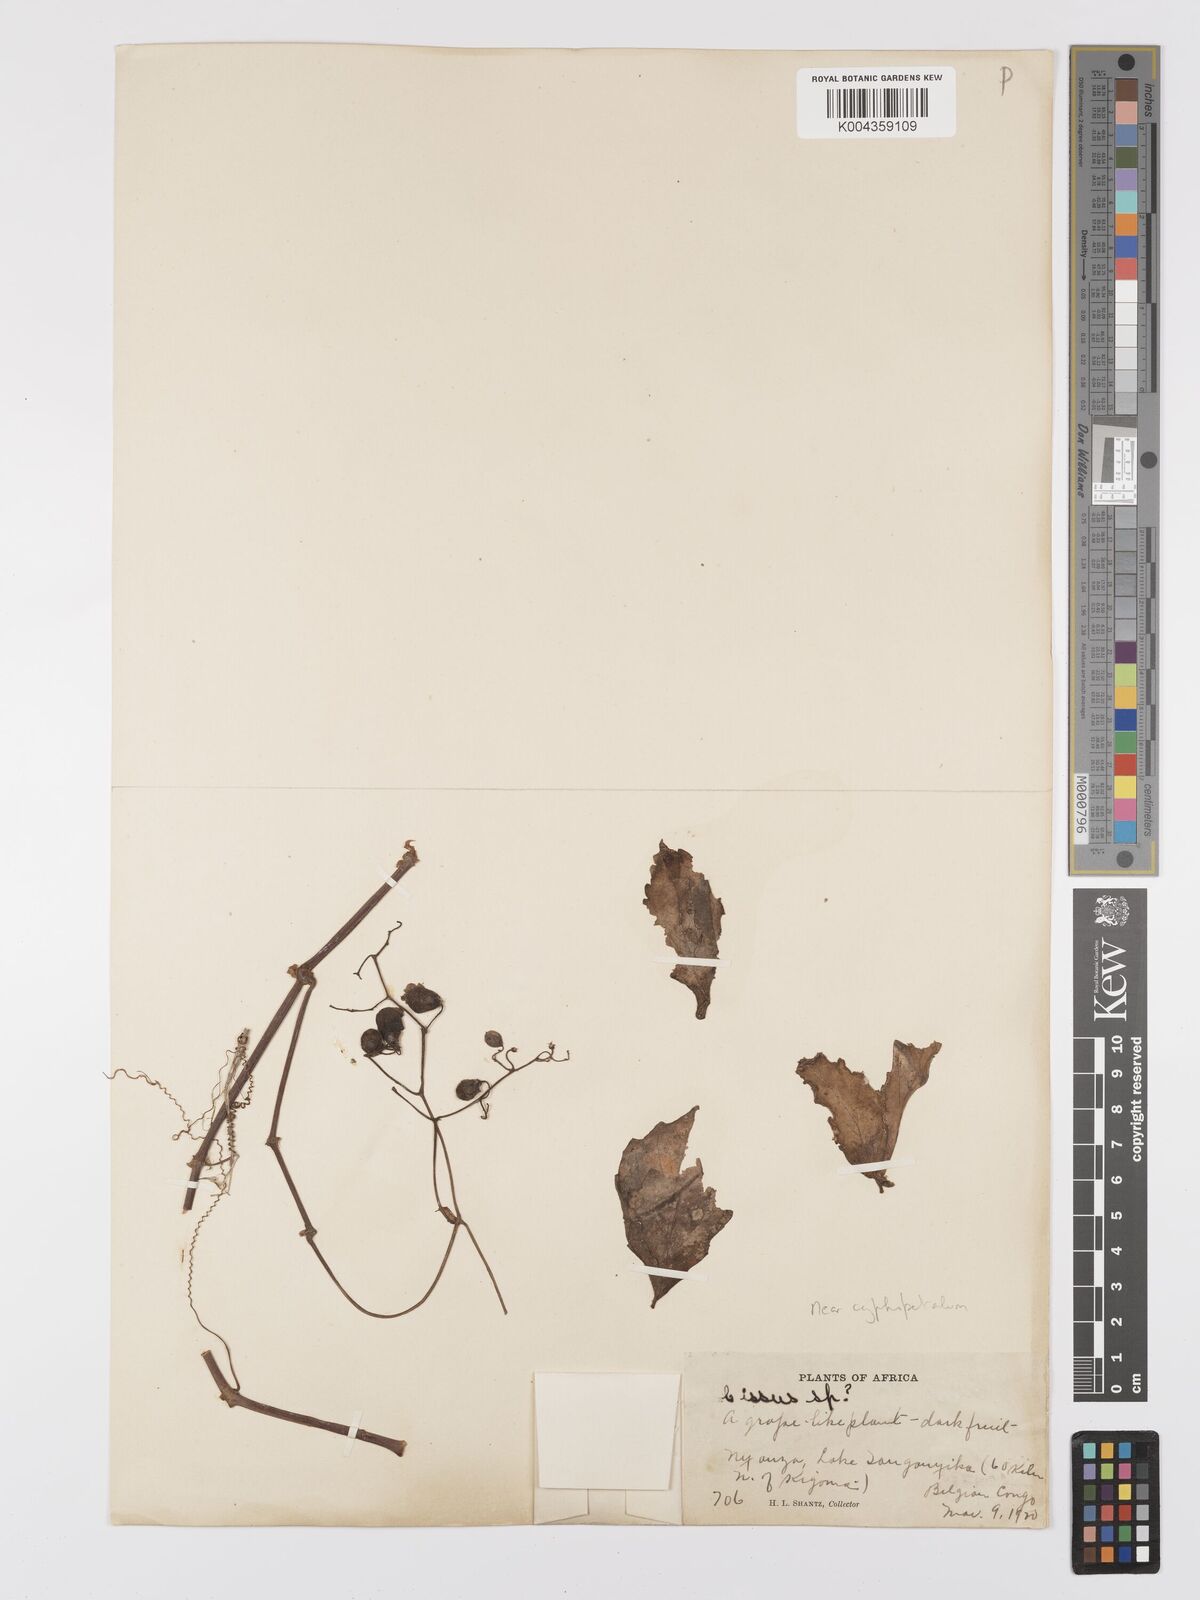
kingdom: Plantae
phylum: Tracheophyta
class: Magnoliopsida
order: Vitales
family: Vitaceae
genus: Cyphostemma
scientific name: Cyphostemma cyphopetalum
